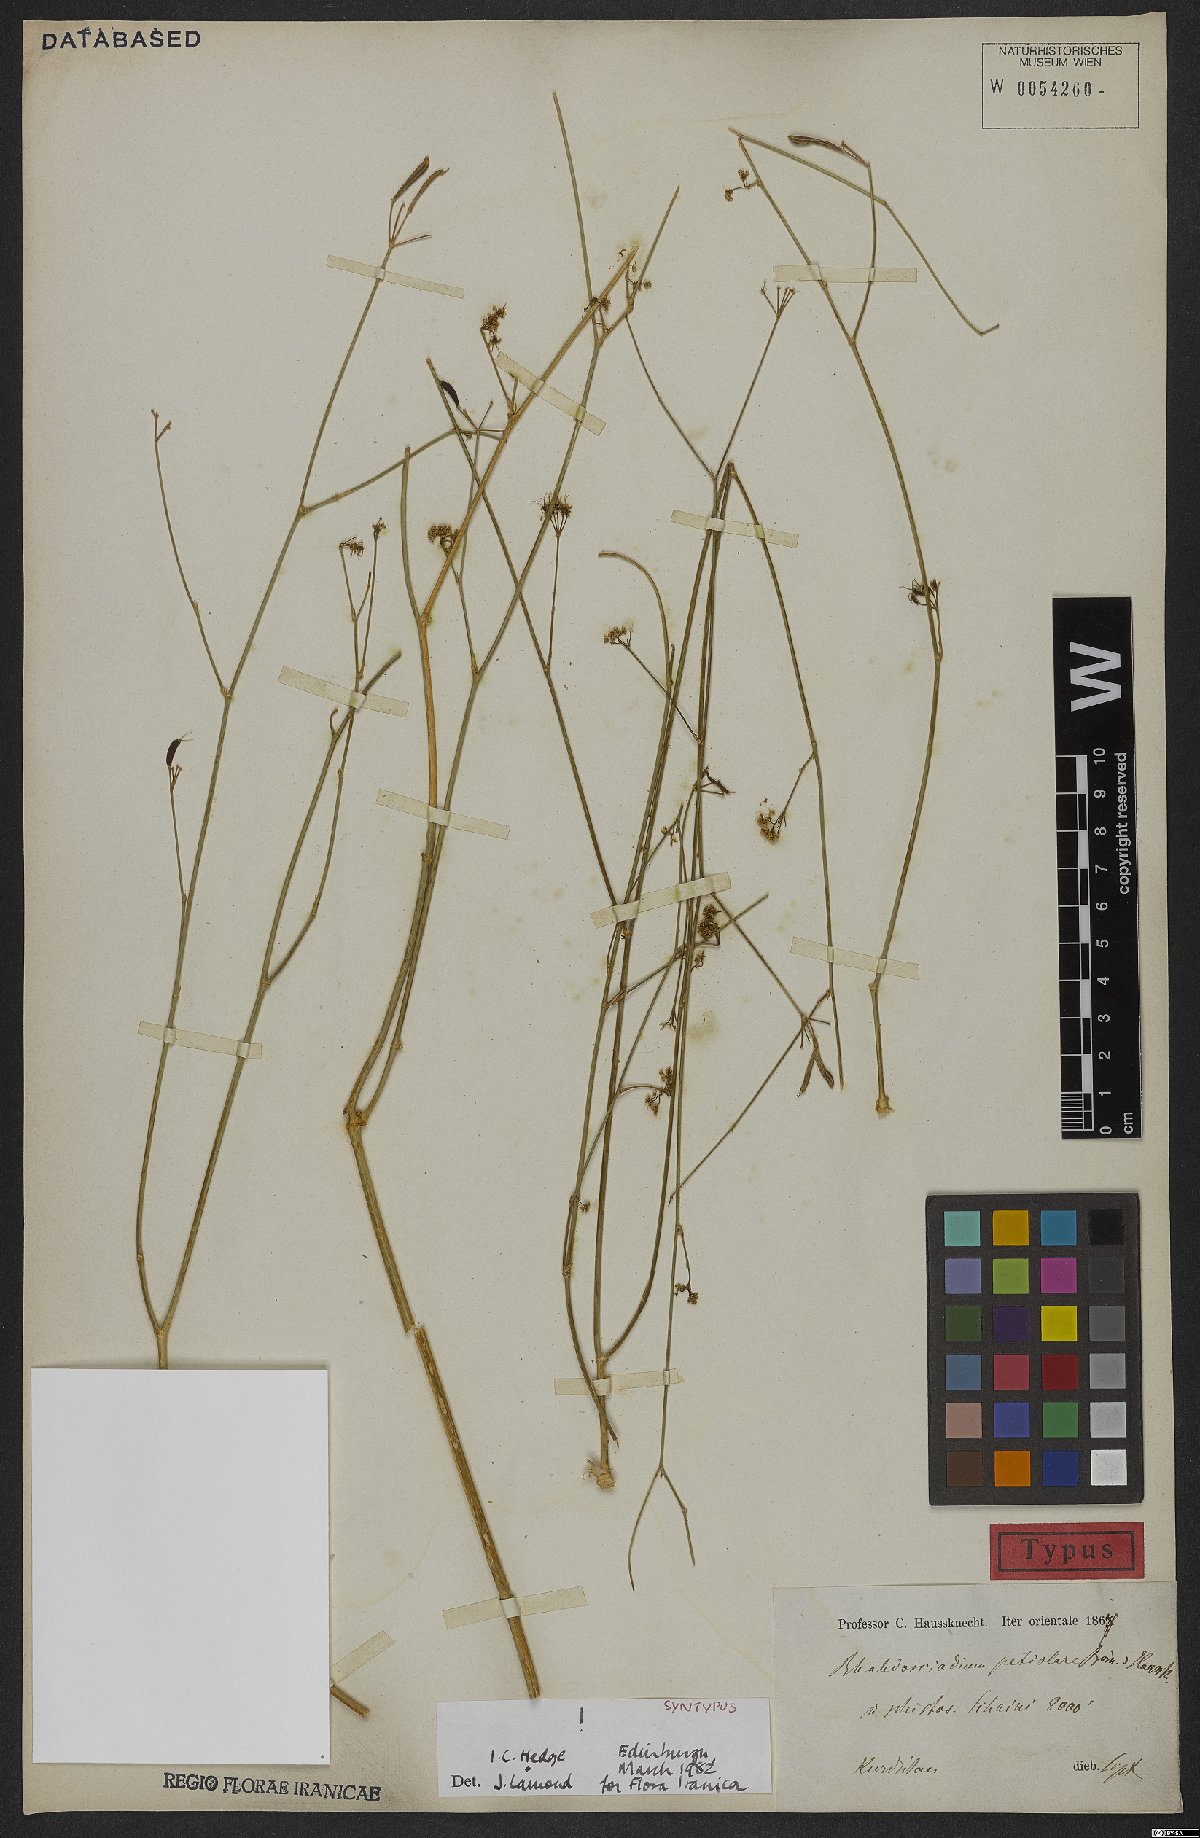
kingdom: Plantae
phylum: Tracheophyta
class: Magnoliopsida
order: Apiales
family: Apiaceae
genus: Rhabdosciadium
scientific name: Rhabdosciadium petiolare
